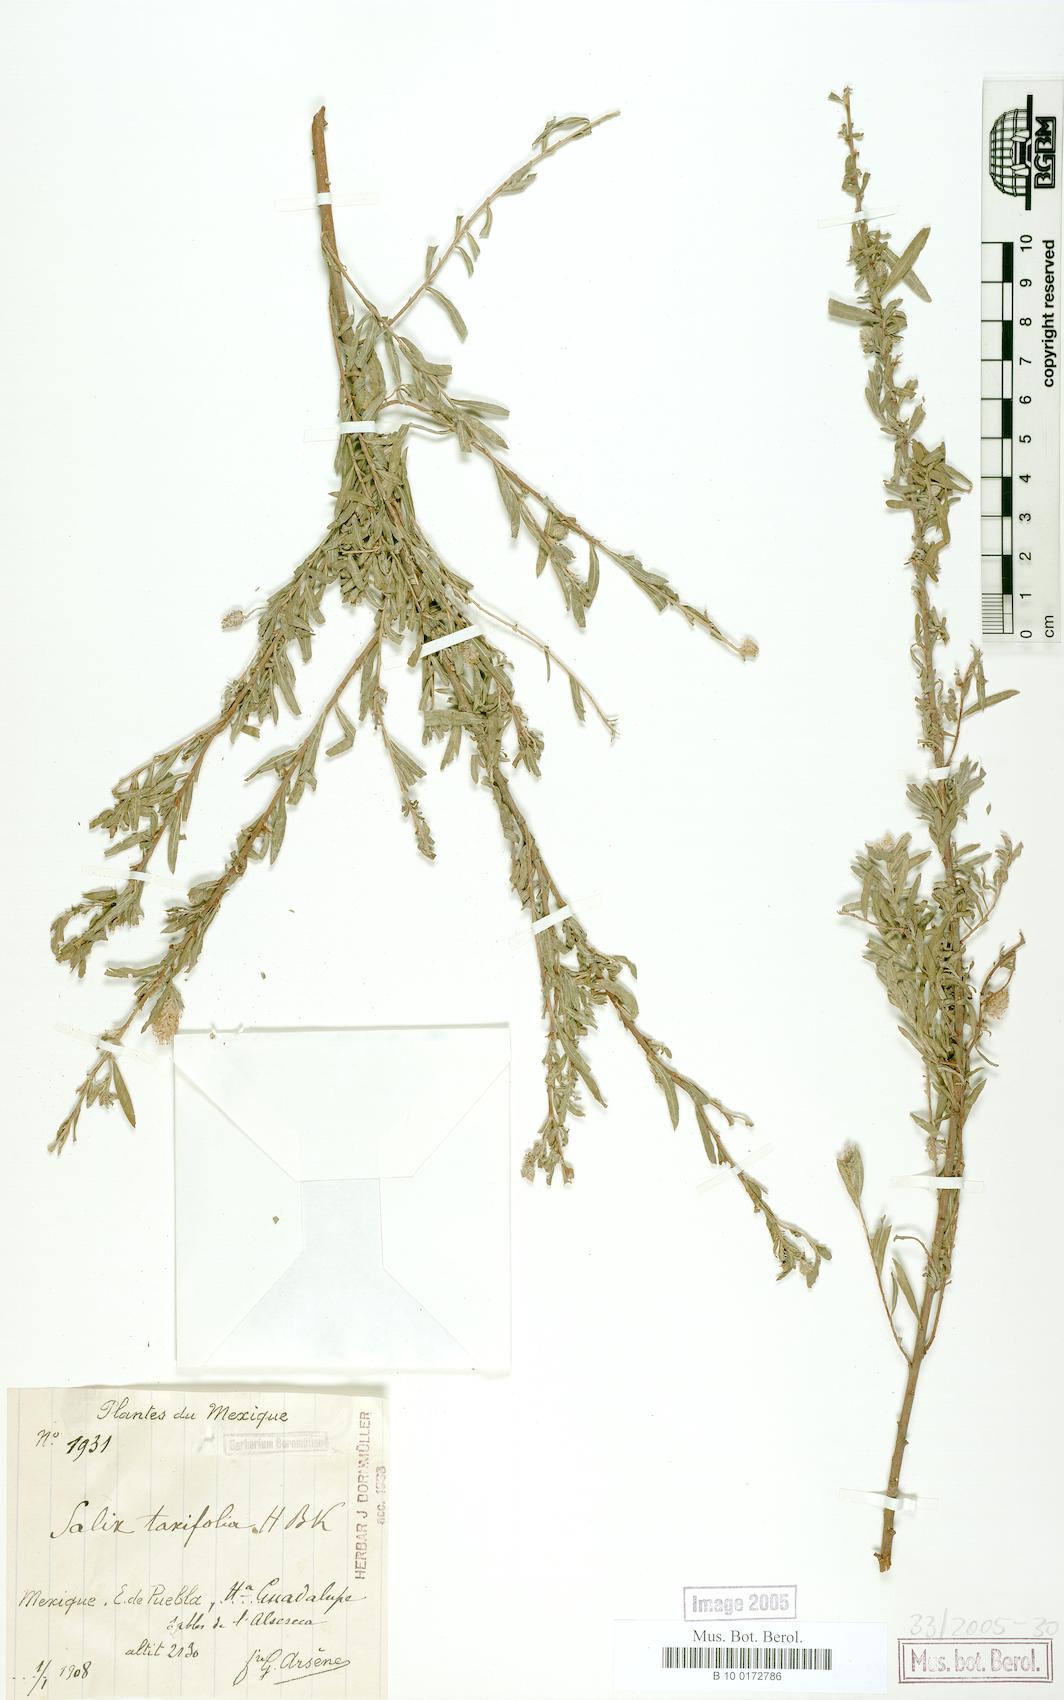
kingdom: Plantae
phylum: Tracheophyta
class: Magnoliopsida
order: Malpighiales
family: Salicaceae
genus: Salix
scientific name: Salix taxifolia
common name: Yew-leaf willow
